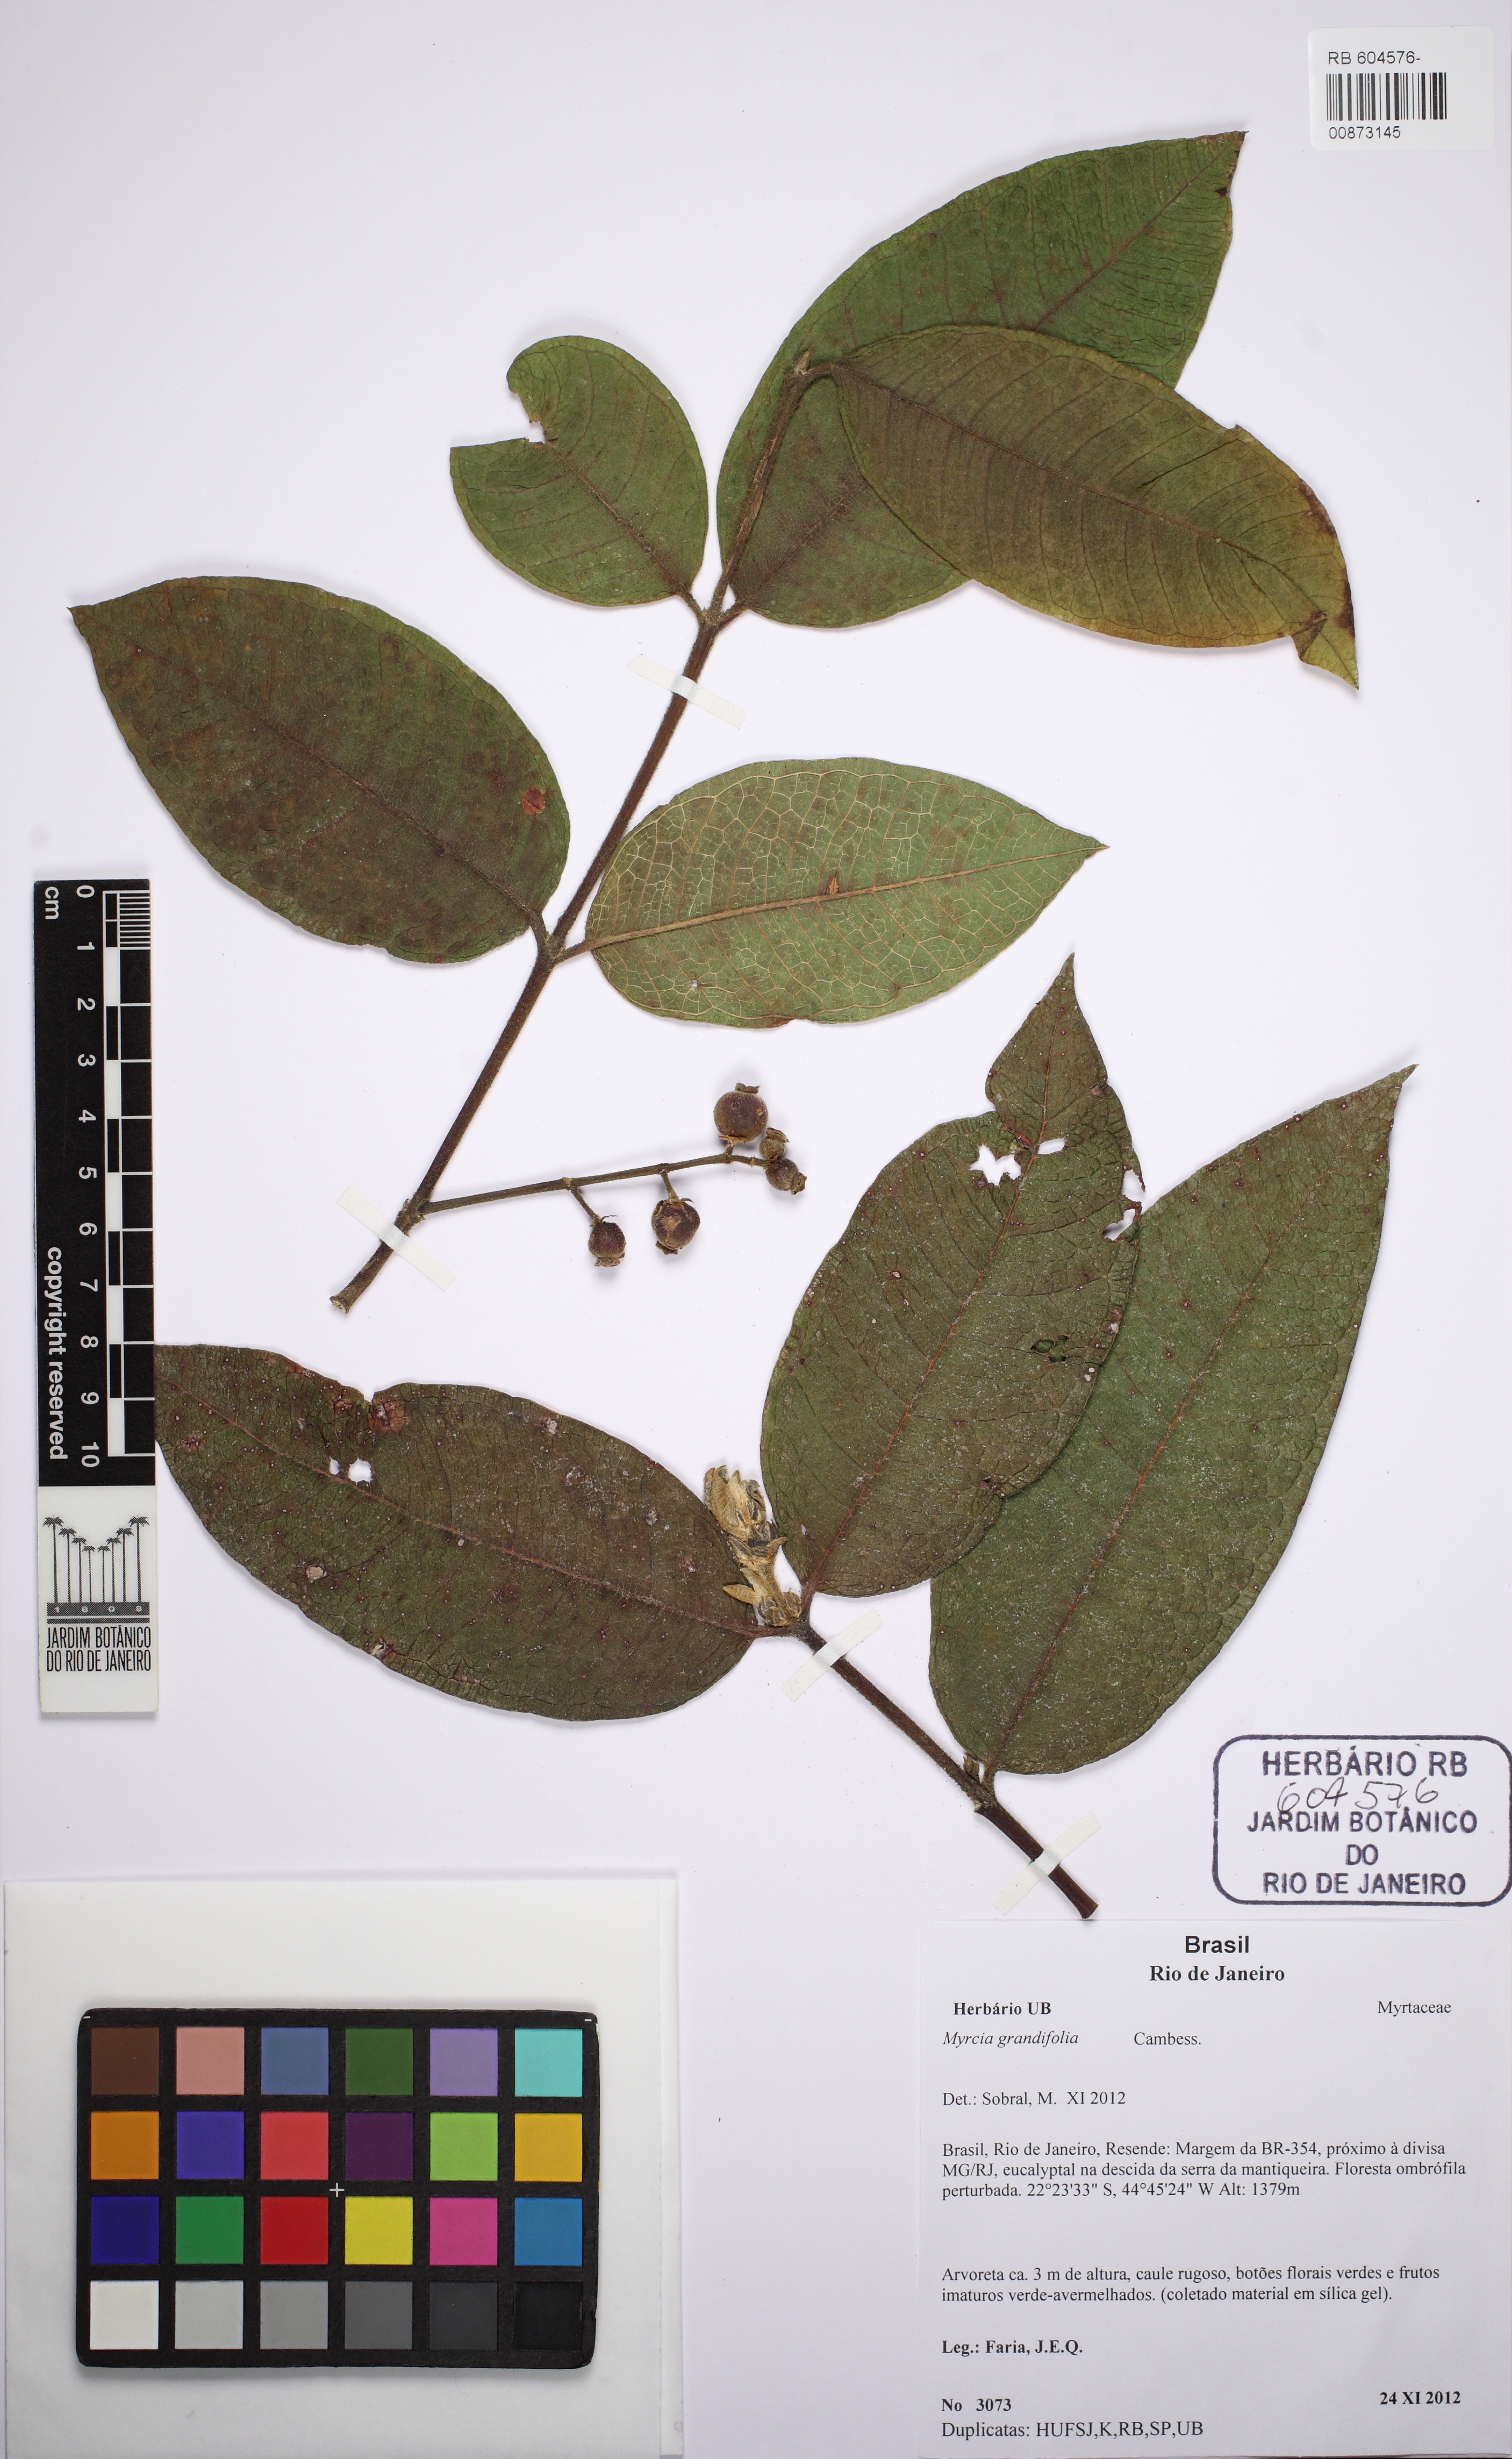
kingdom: Plantae
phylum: Tracheophyta
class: Magnoliopsida
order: Myrtales
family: Myrtaceae
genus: Myrcia
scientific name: Myrcia grandifolia
